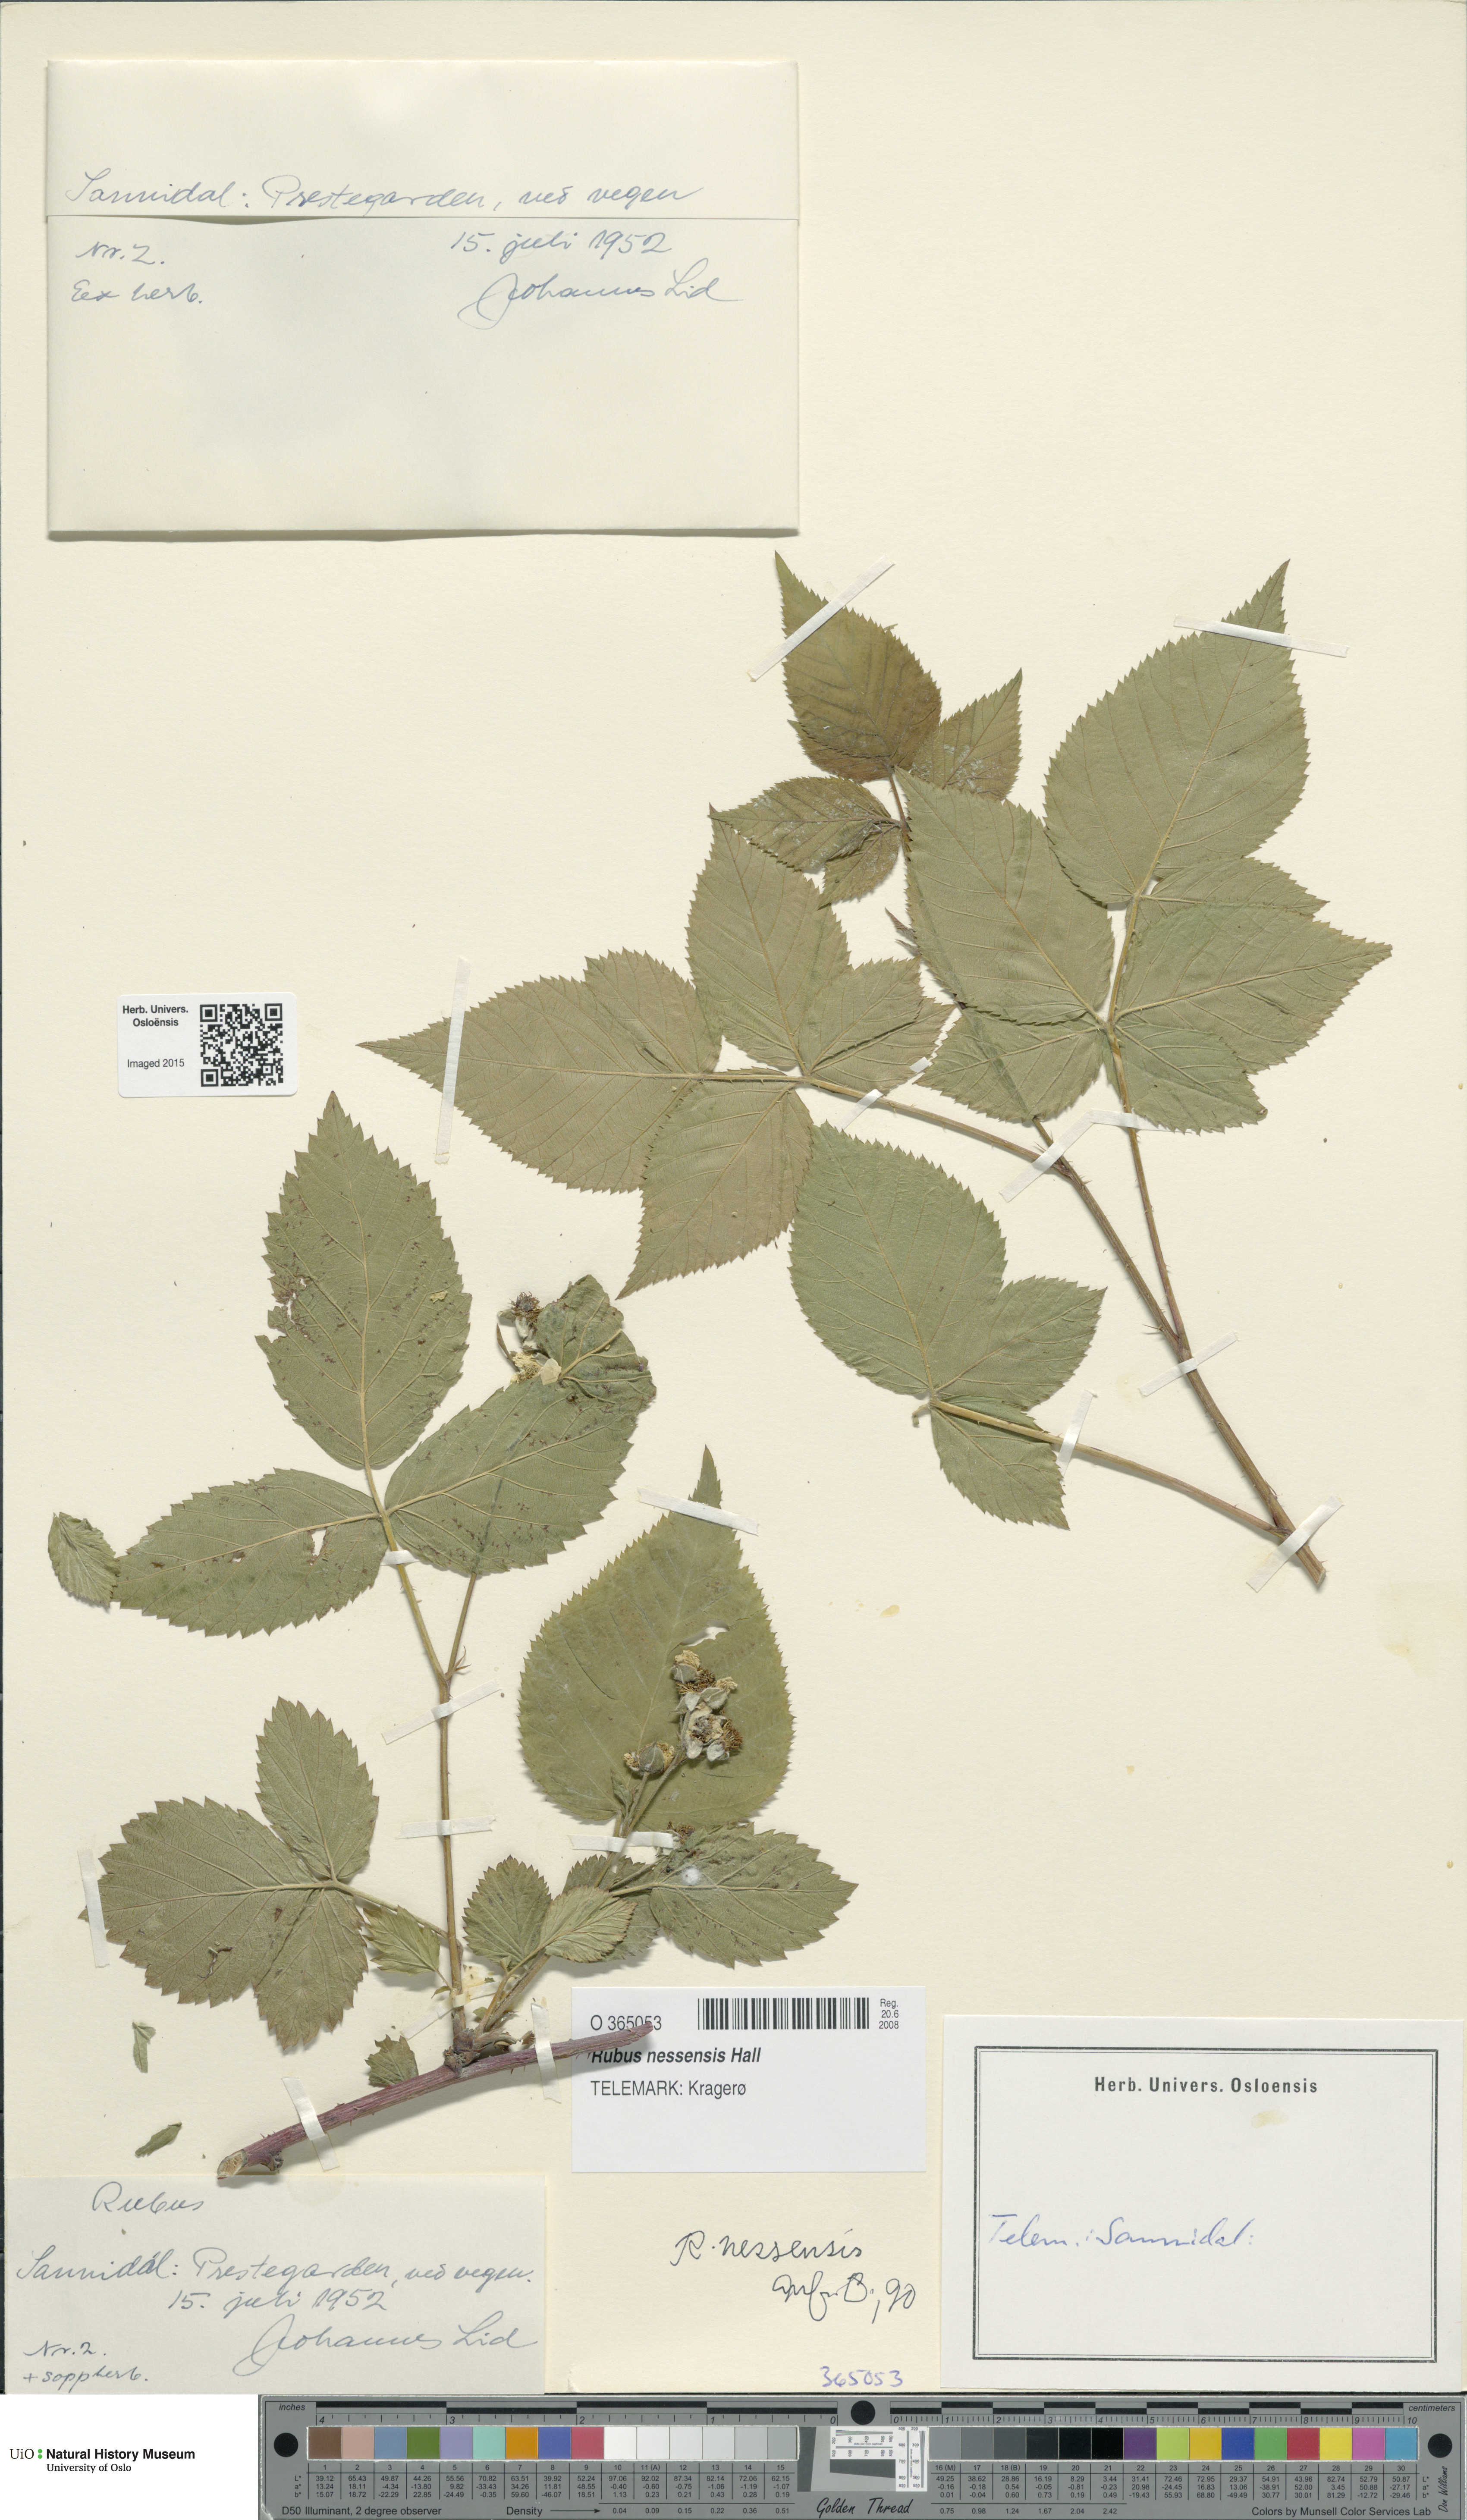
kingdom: Plantae
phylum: Tracheophyta
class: Magnoliopsida
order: Rosales
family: Rosaceae
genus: Rubus
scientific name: Rubus polonicus
